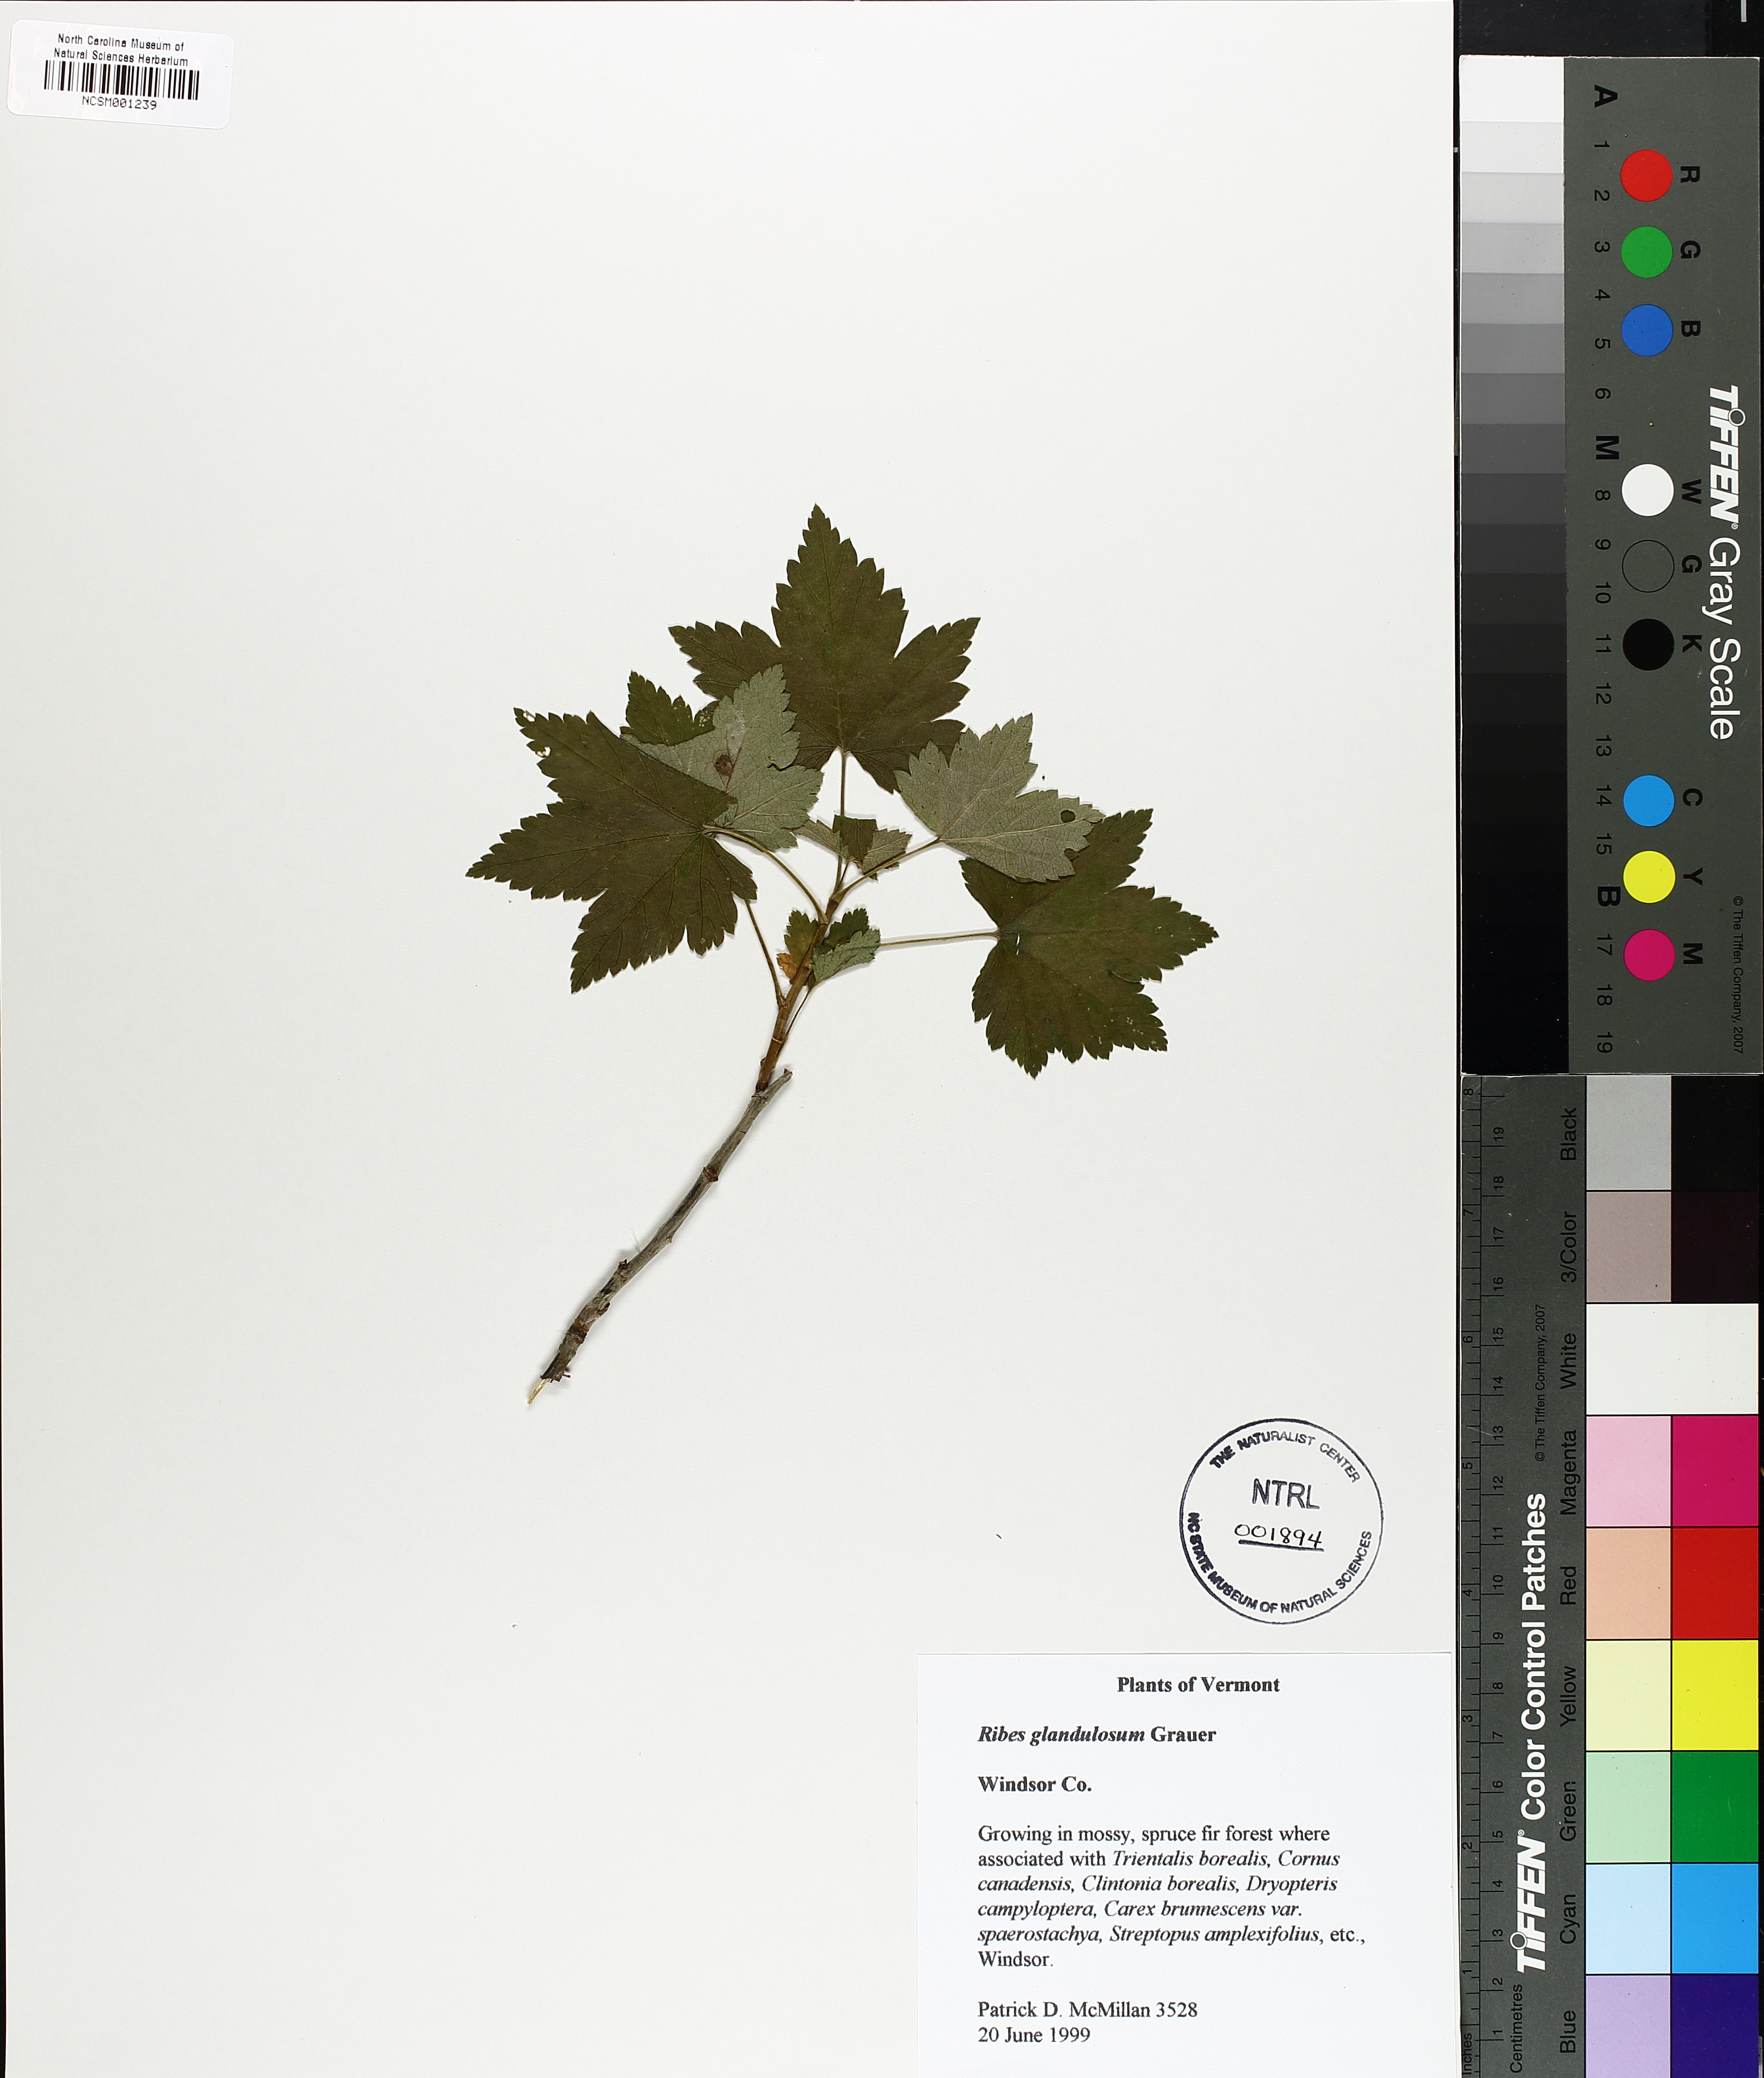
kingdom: Plantae
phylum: Tracheophyta
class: Magnoliopsida
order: Saxifragales
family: Grossulariaceae
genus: Ribes
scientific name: Ribes glandulosum
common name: Skunk currant
